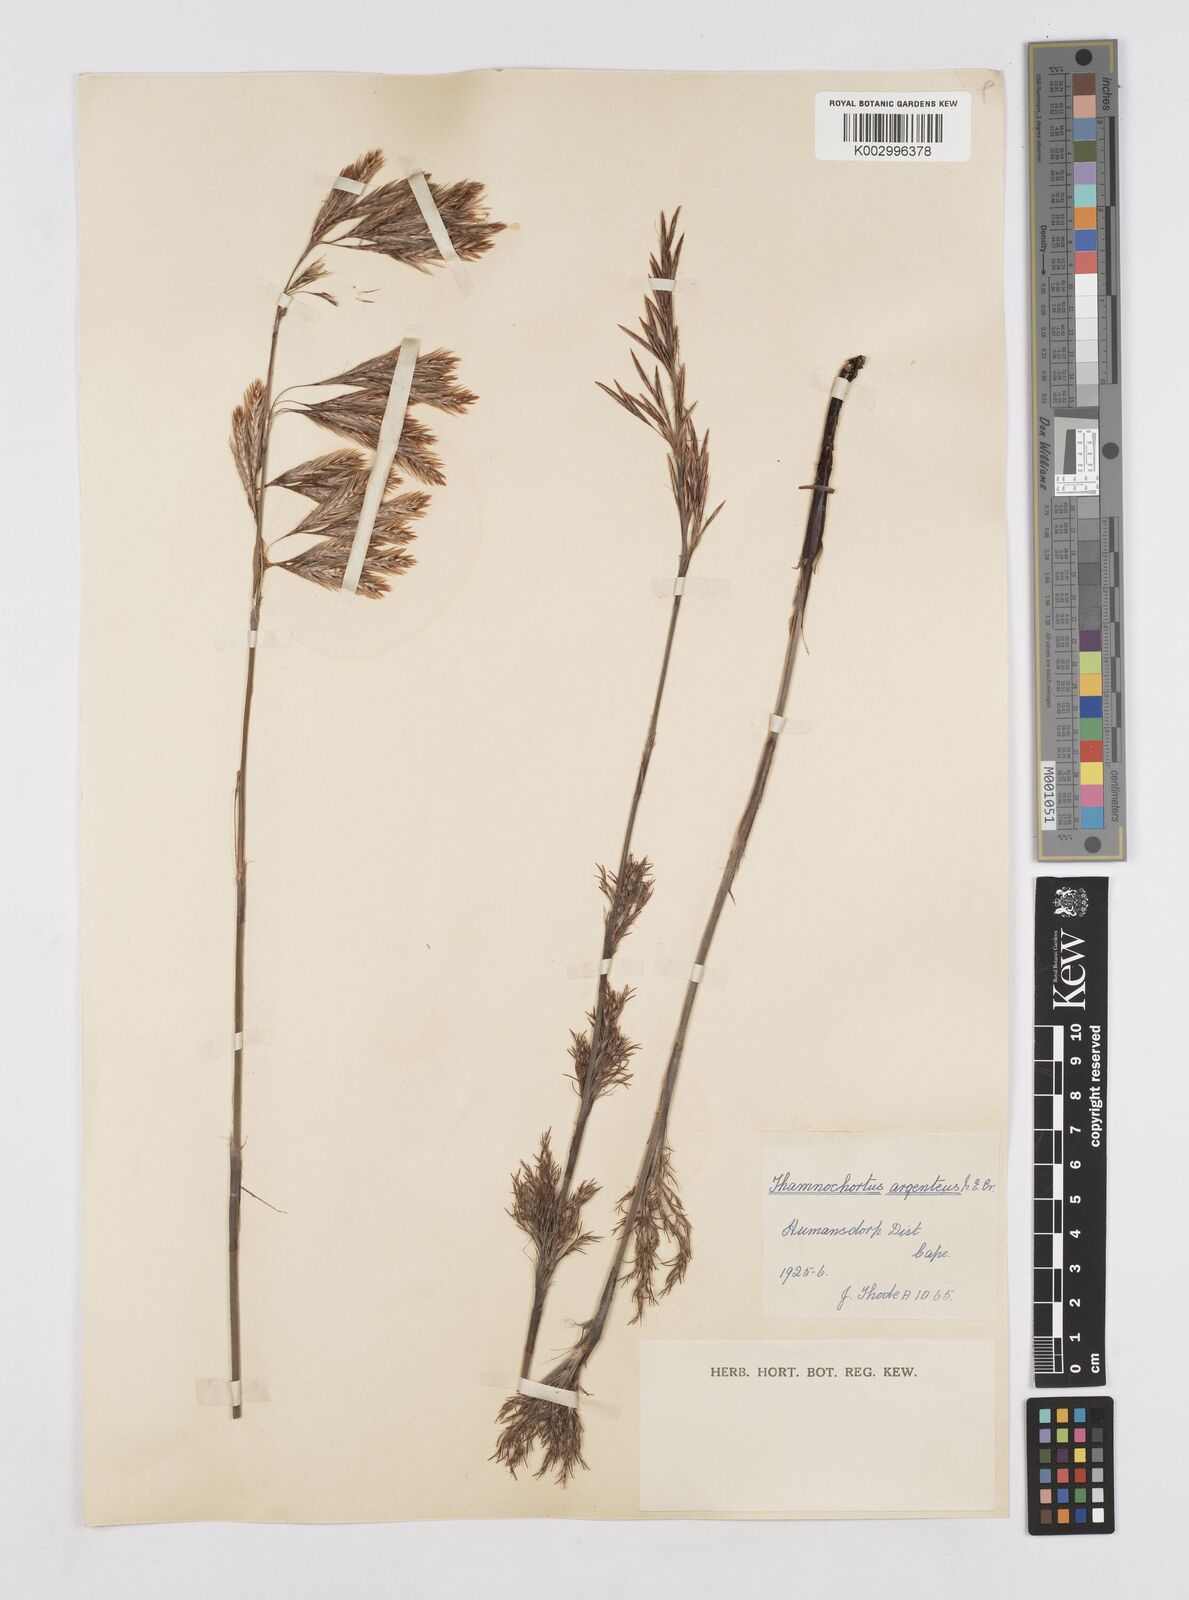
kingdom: Plantae
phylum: Tracheophyta
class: Liliopsida
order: Poales
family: Restionaceae
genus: Hypodiscus
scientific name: Hypodiscus argenteus
